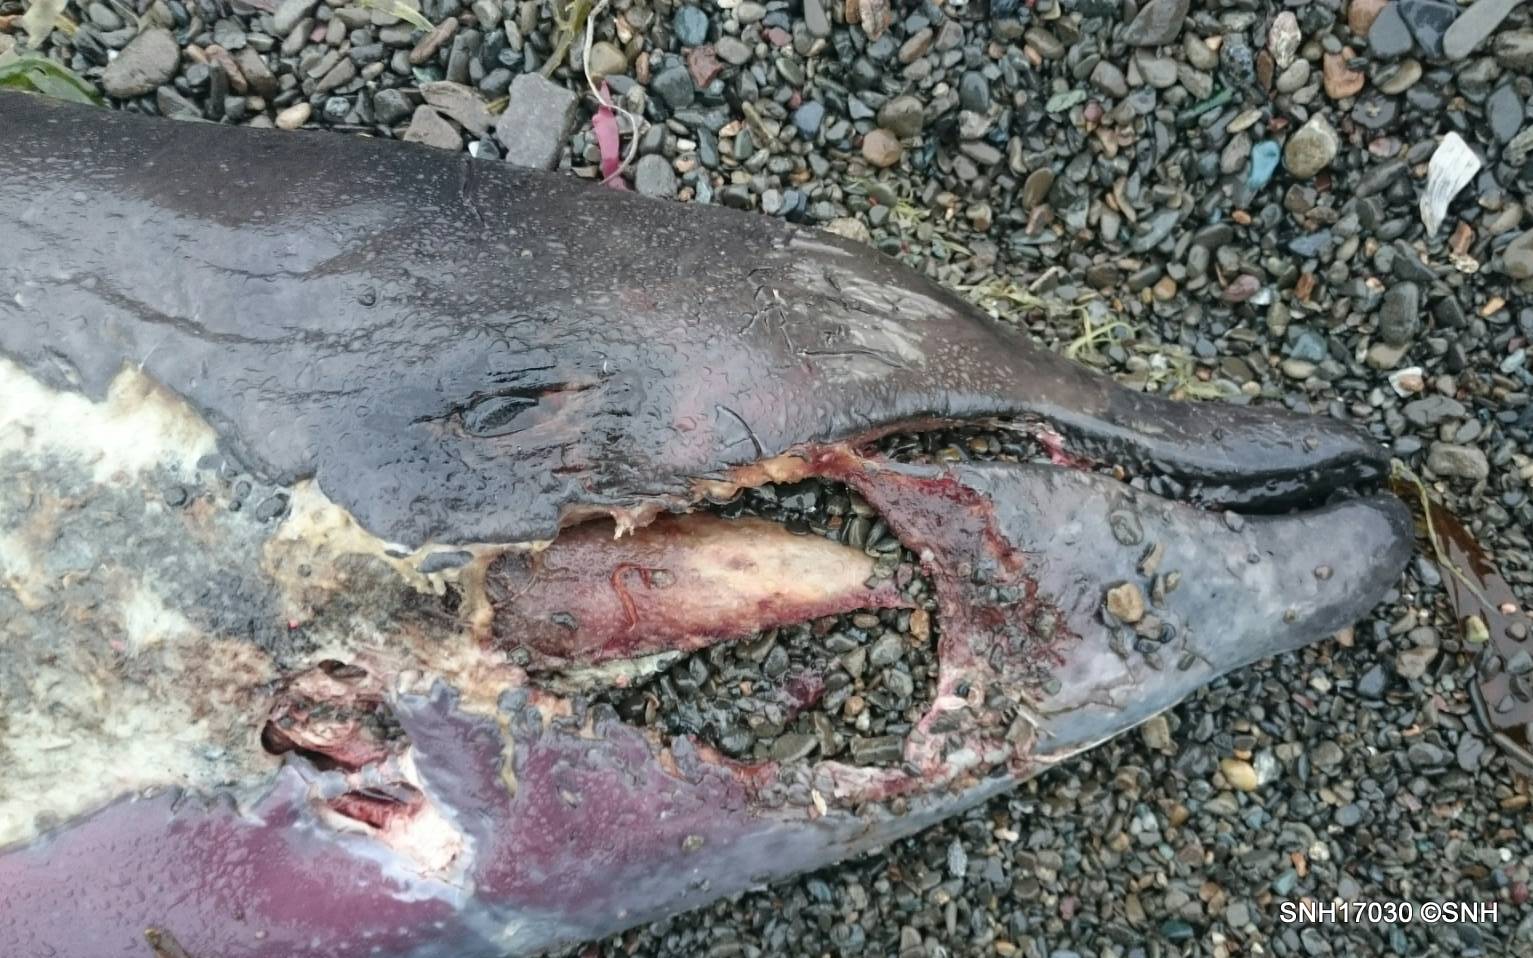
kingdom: Animalia
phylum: Chordata
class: Mammalia
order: Cetacea
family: Hyperoodontidae
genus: Mesoplodon
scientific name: Mesoplodon carlhubbsi
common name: Hubbs' beaked whale
